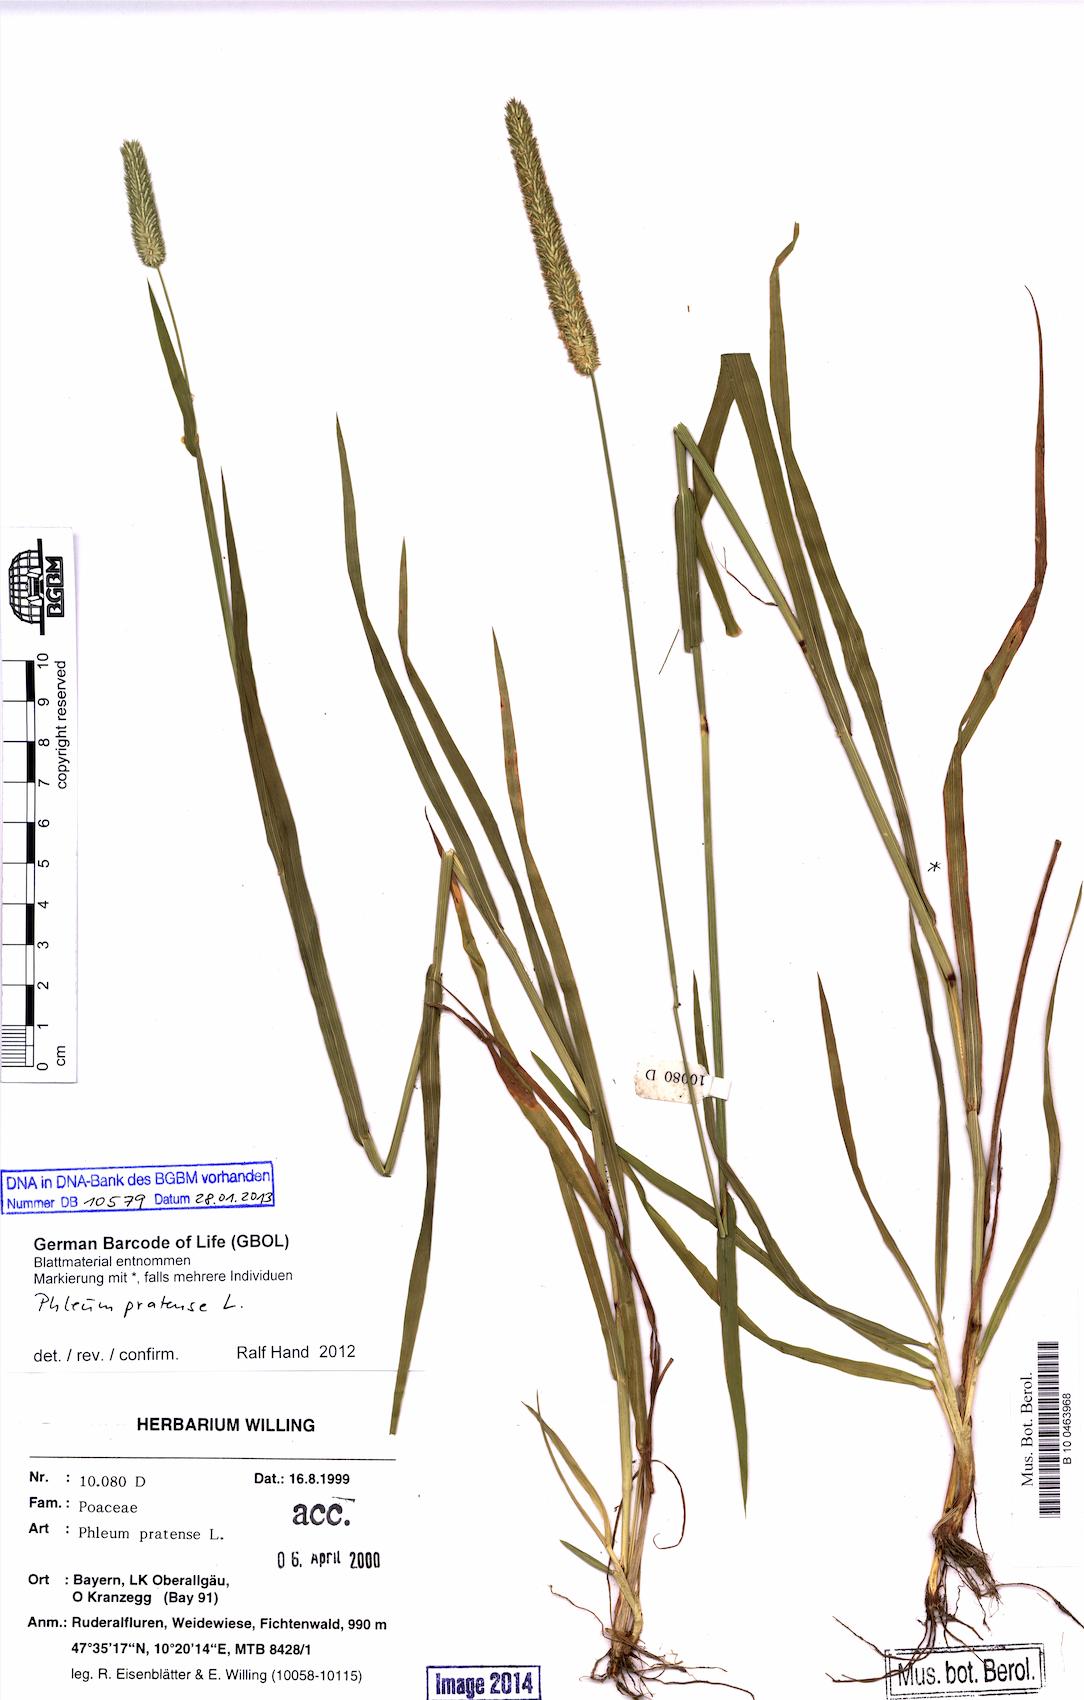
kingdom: Plantae
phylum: Tracheophyta
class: Liliopsida
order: Poales
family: Poaceae
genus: Phleum
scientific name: Phleum pratense
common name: Timothy grass
